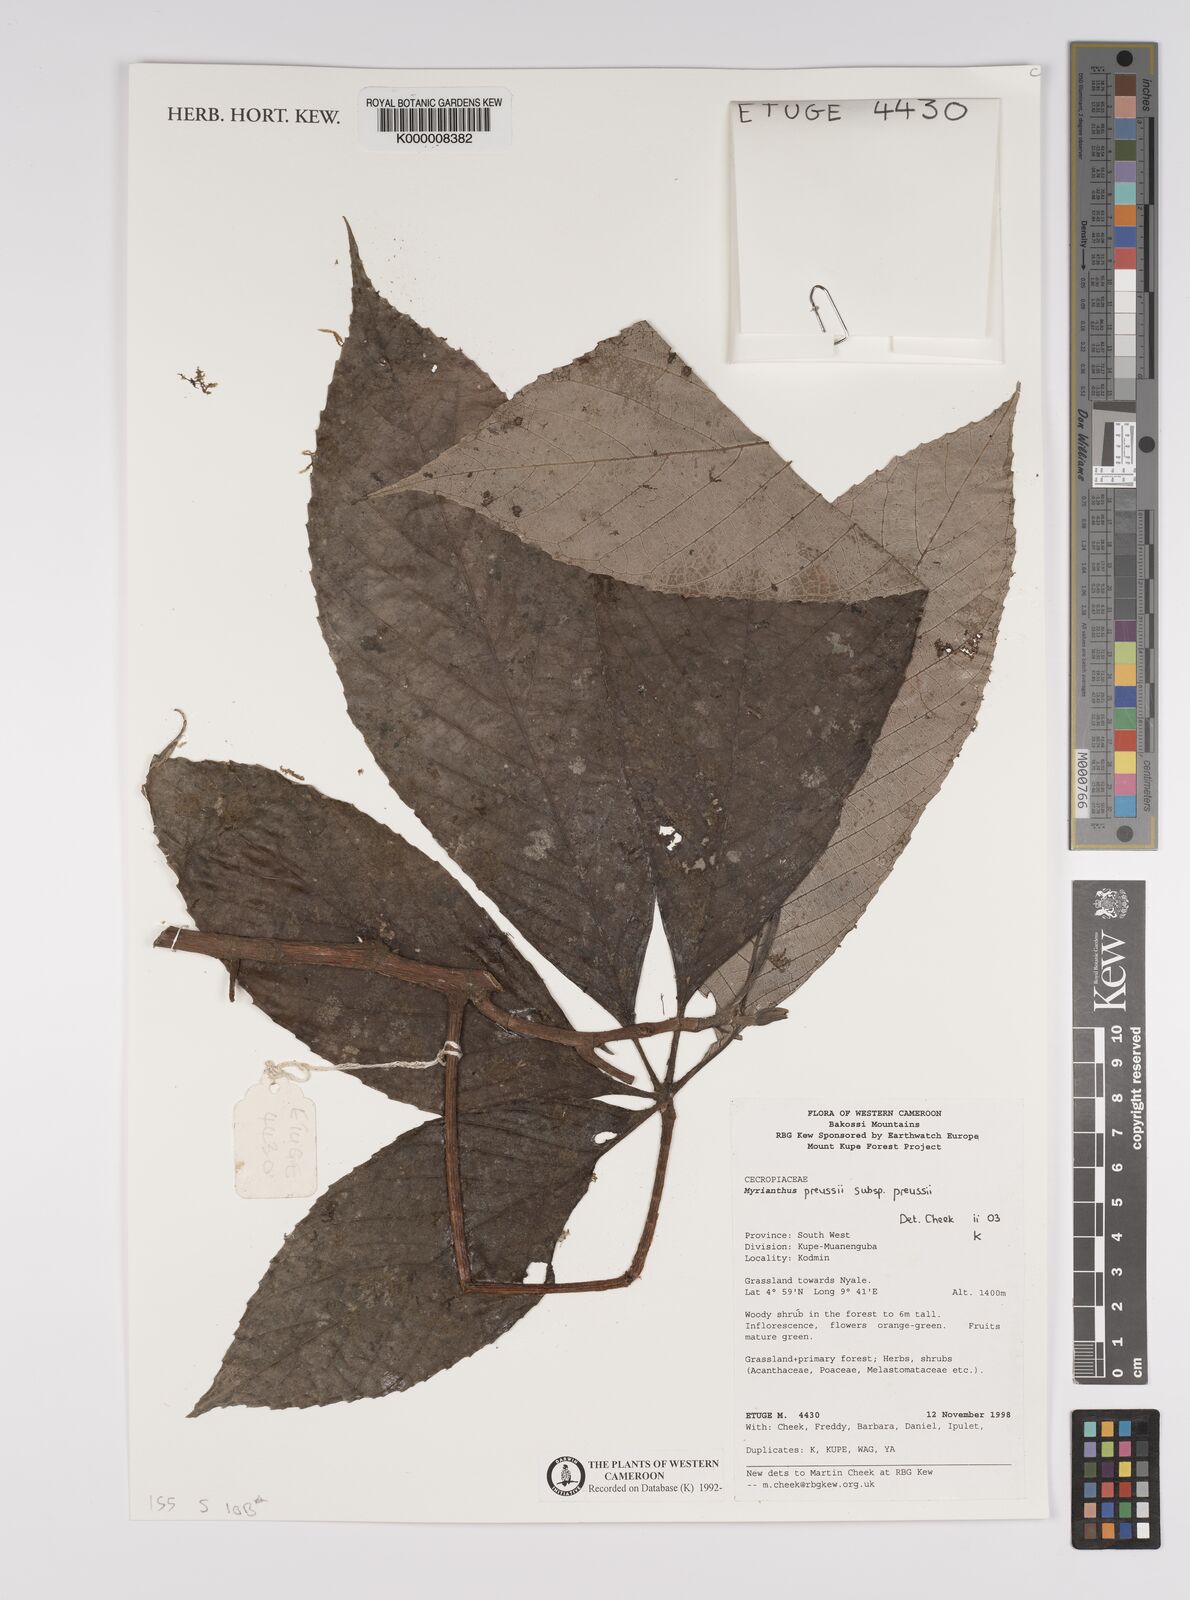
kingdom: Plantae
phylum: Tracheophyta
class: Magnoliopsida
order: Rosales
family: Urticaceae
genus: Myrianthus
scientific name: Myrianthus preussii
